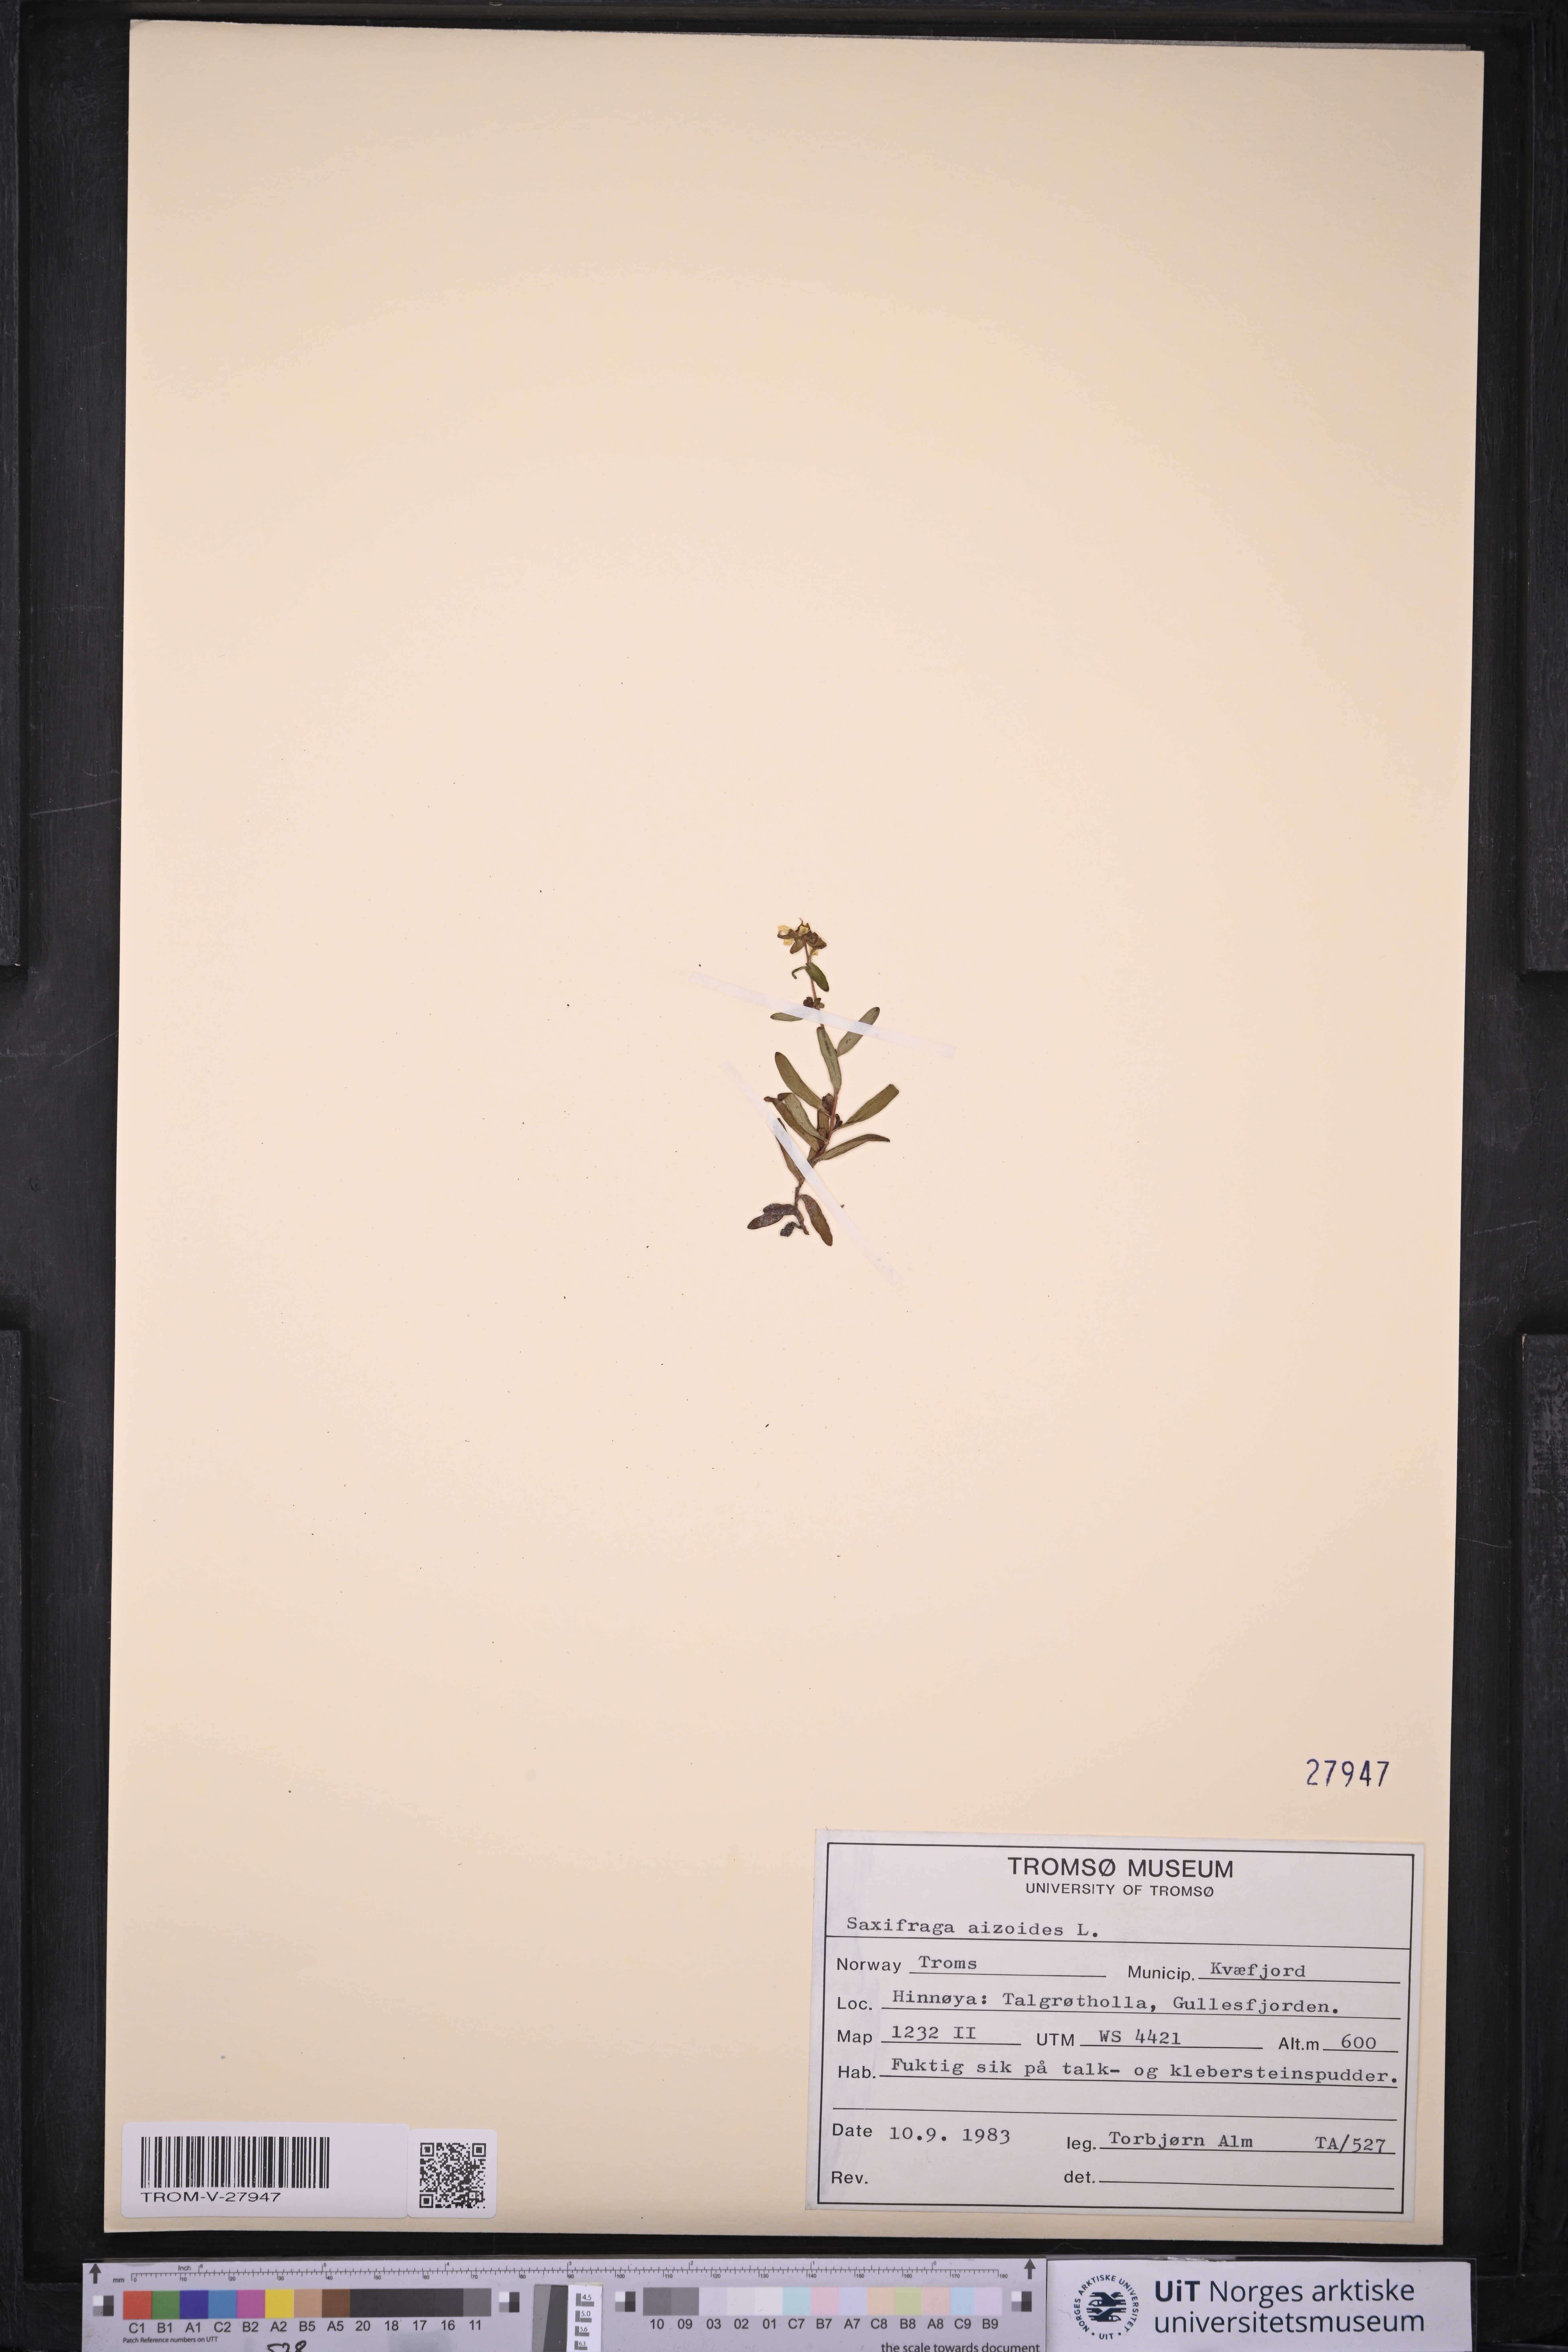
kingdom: Plantae
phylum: Tracheophyta
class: Magnoliopsida
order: Saxifragales
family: Saxifragaceae
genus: Saxifraga
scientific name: Saxifraga aizoides
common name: Yellow mountain saxifrage
